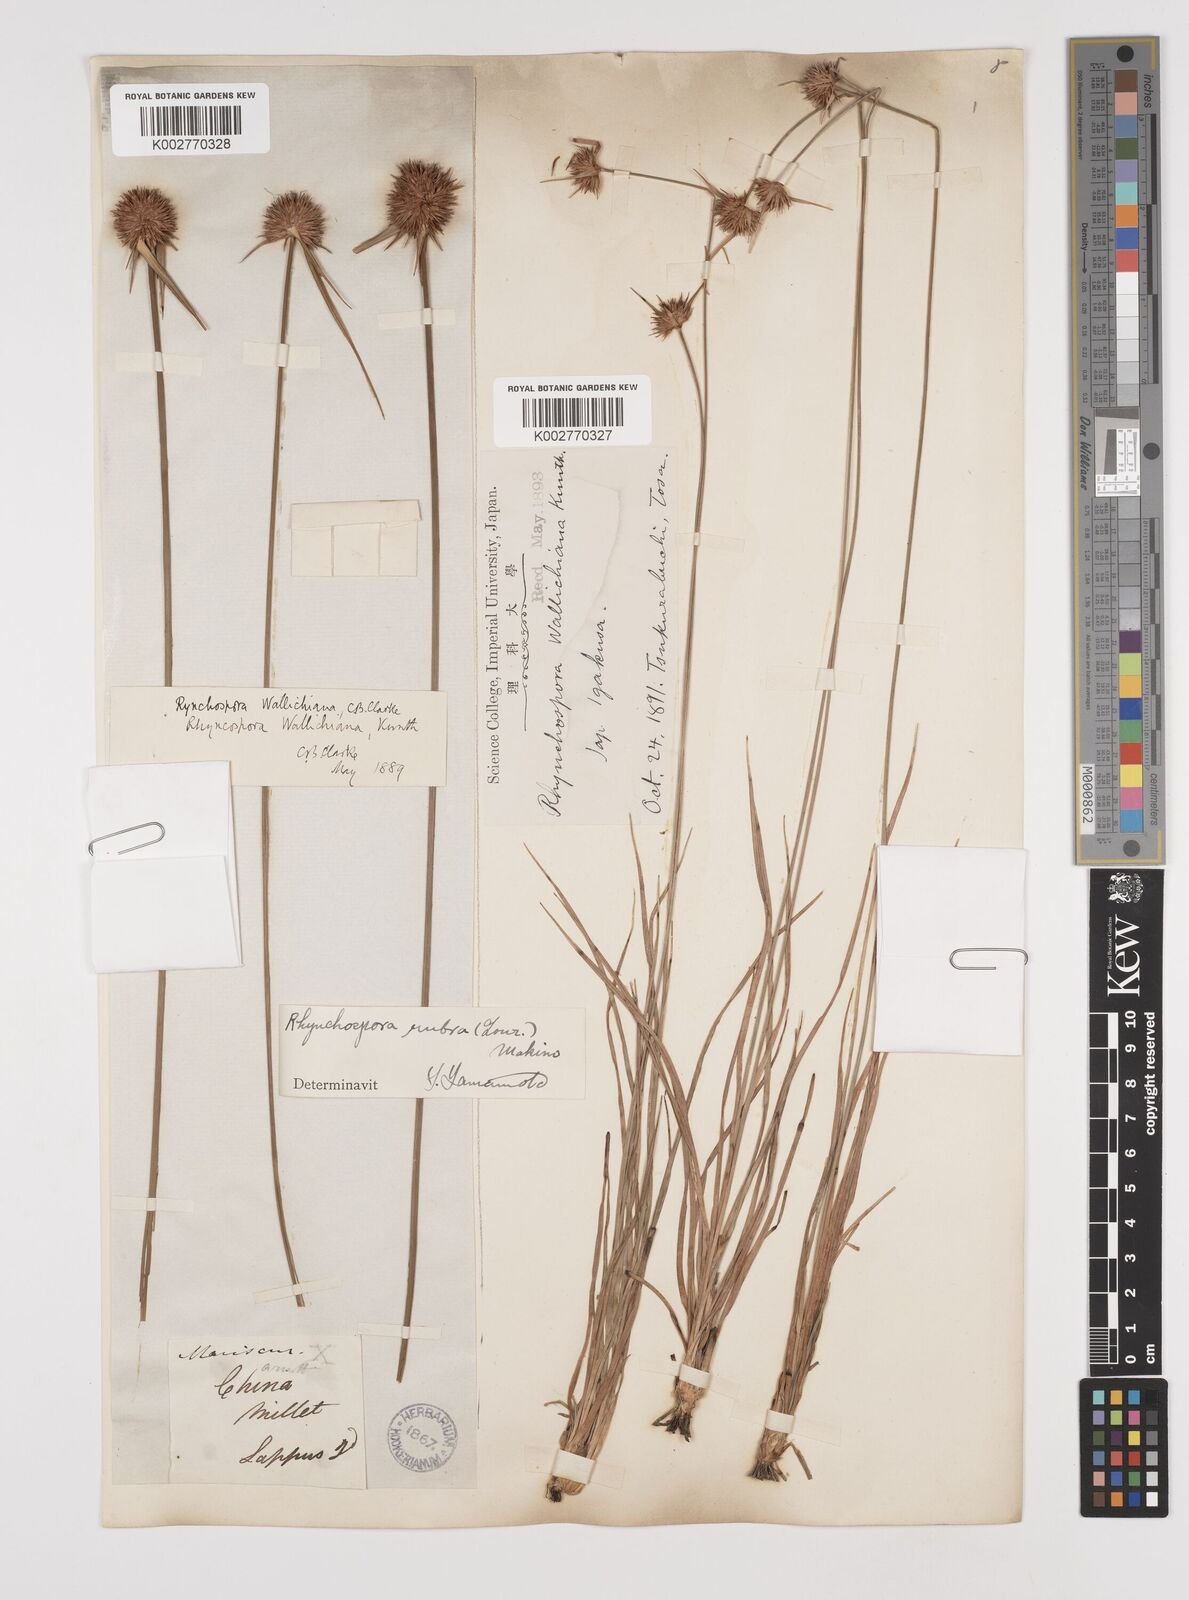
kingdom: Plantae
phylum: Tracheophyta
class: Liliopsida
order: Poales
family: Cyperaceae
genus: Rhynchospora
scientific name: Rhynchospora rubra
